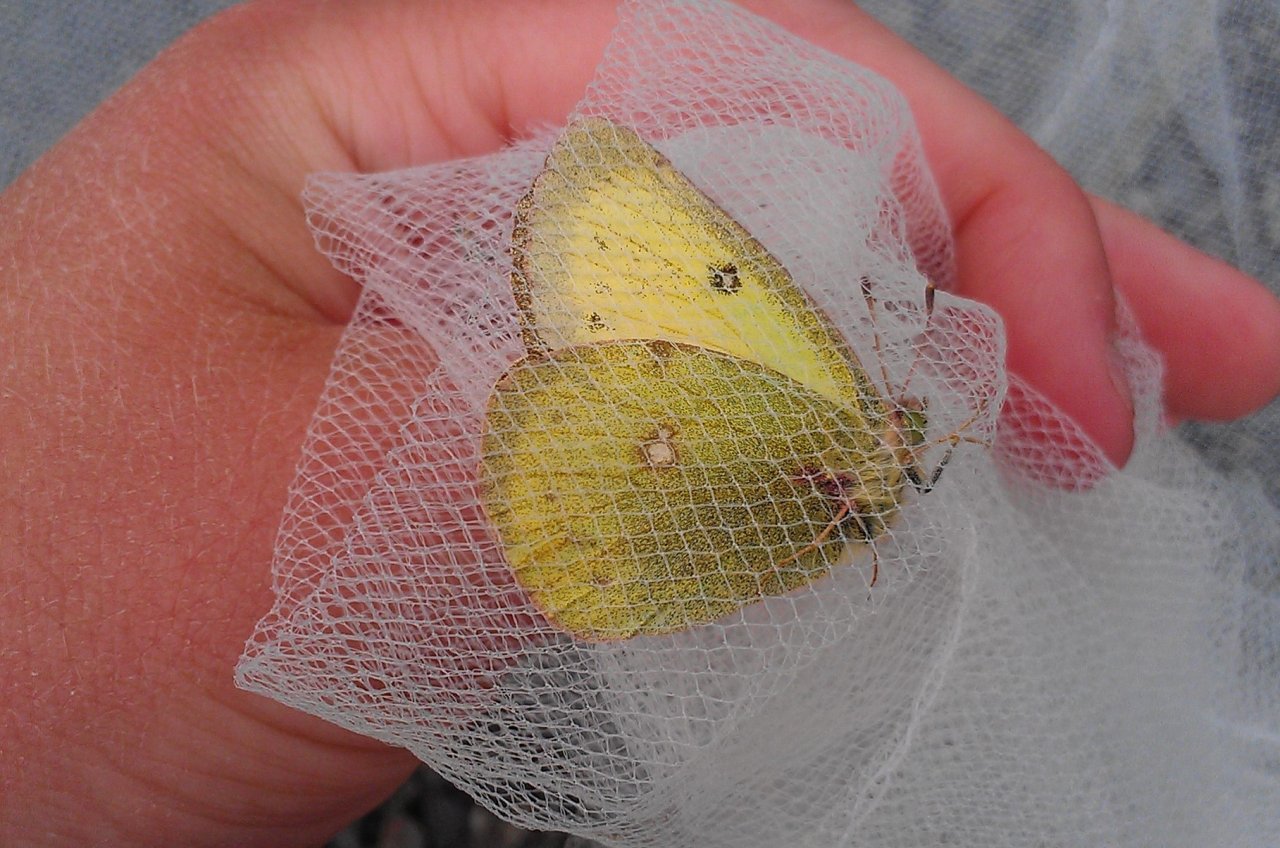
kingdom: Animalia
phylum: Arthropoda
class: Insecta
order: Lepidoptera
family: Pieridae
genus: Colias
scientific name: Colias philodice
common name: Clouded Sulphur
